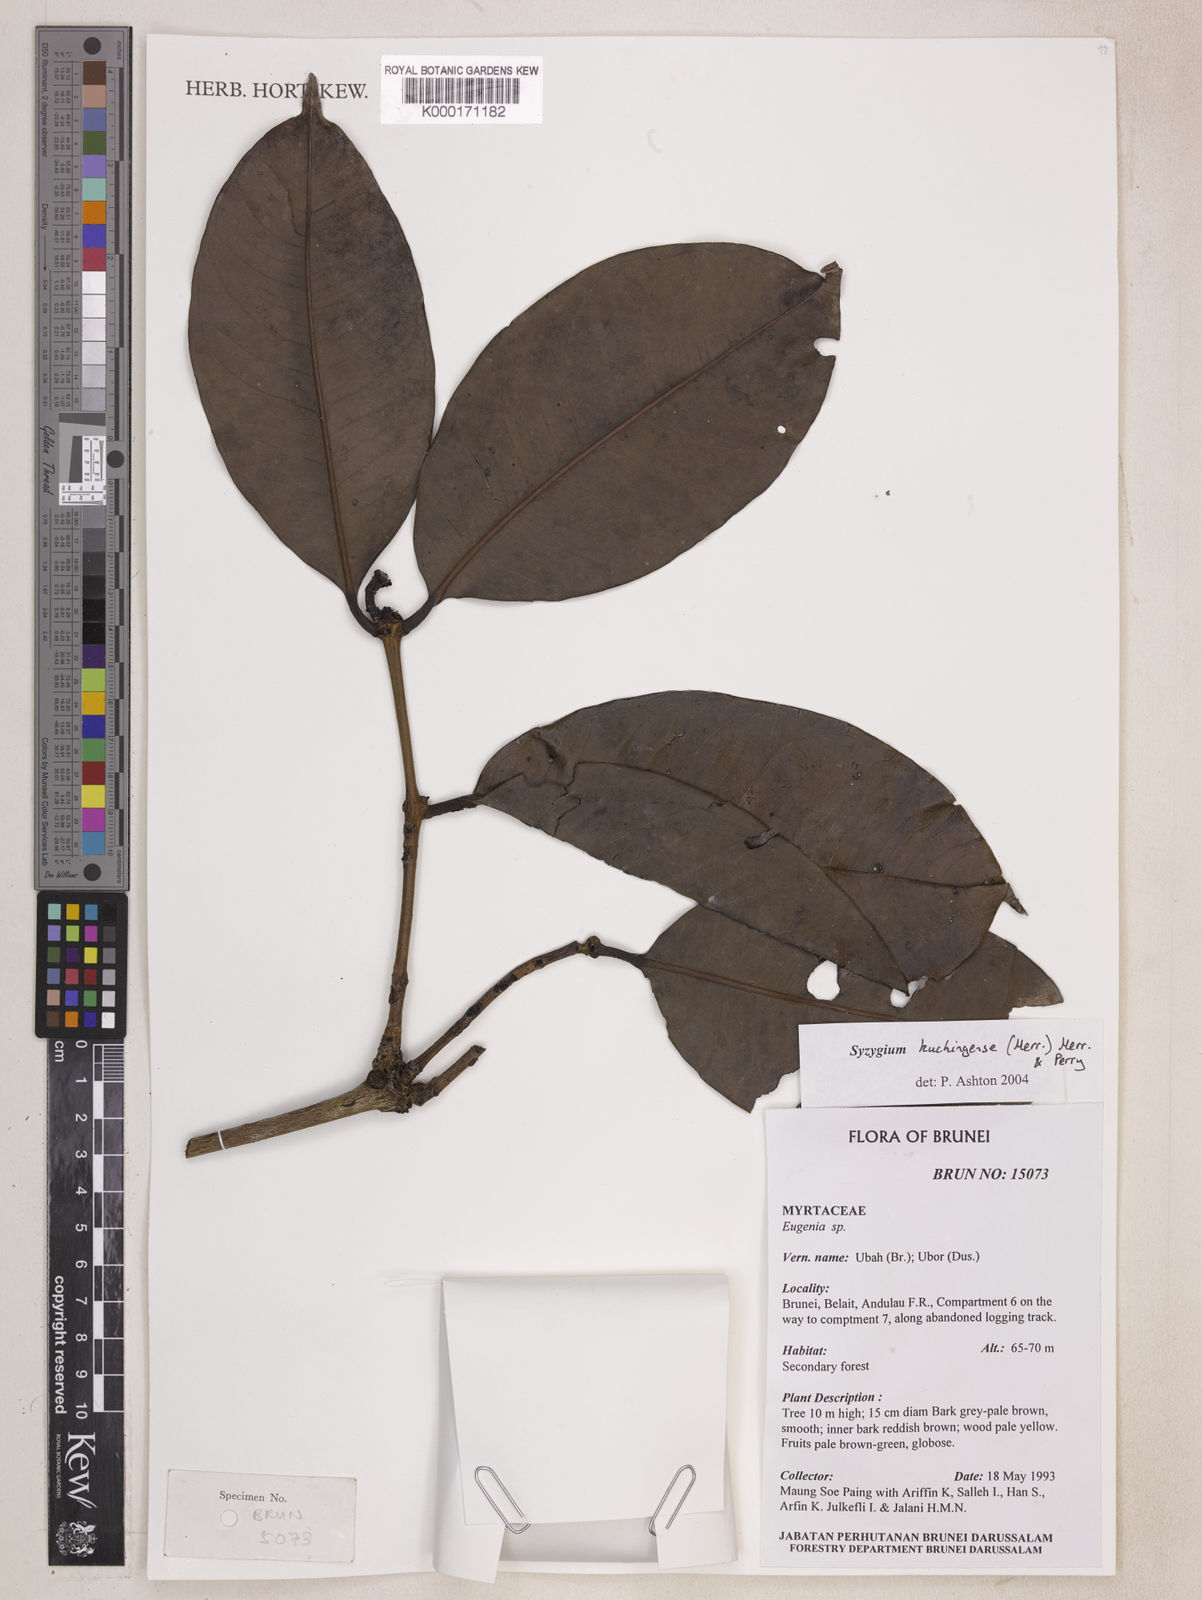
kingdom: Plantae
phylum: Tracheophyta
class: Magnoliopsida
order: Myrtales
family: Myrtaceae
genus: Syzygium
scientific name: Syzygium urceolatum
